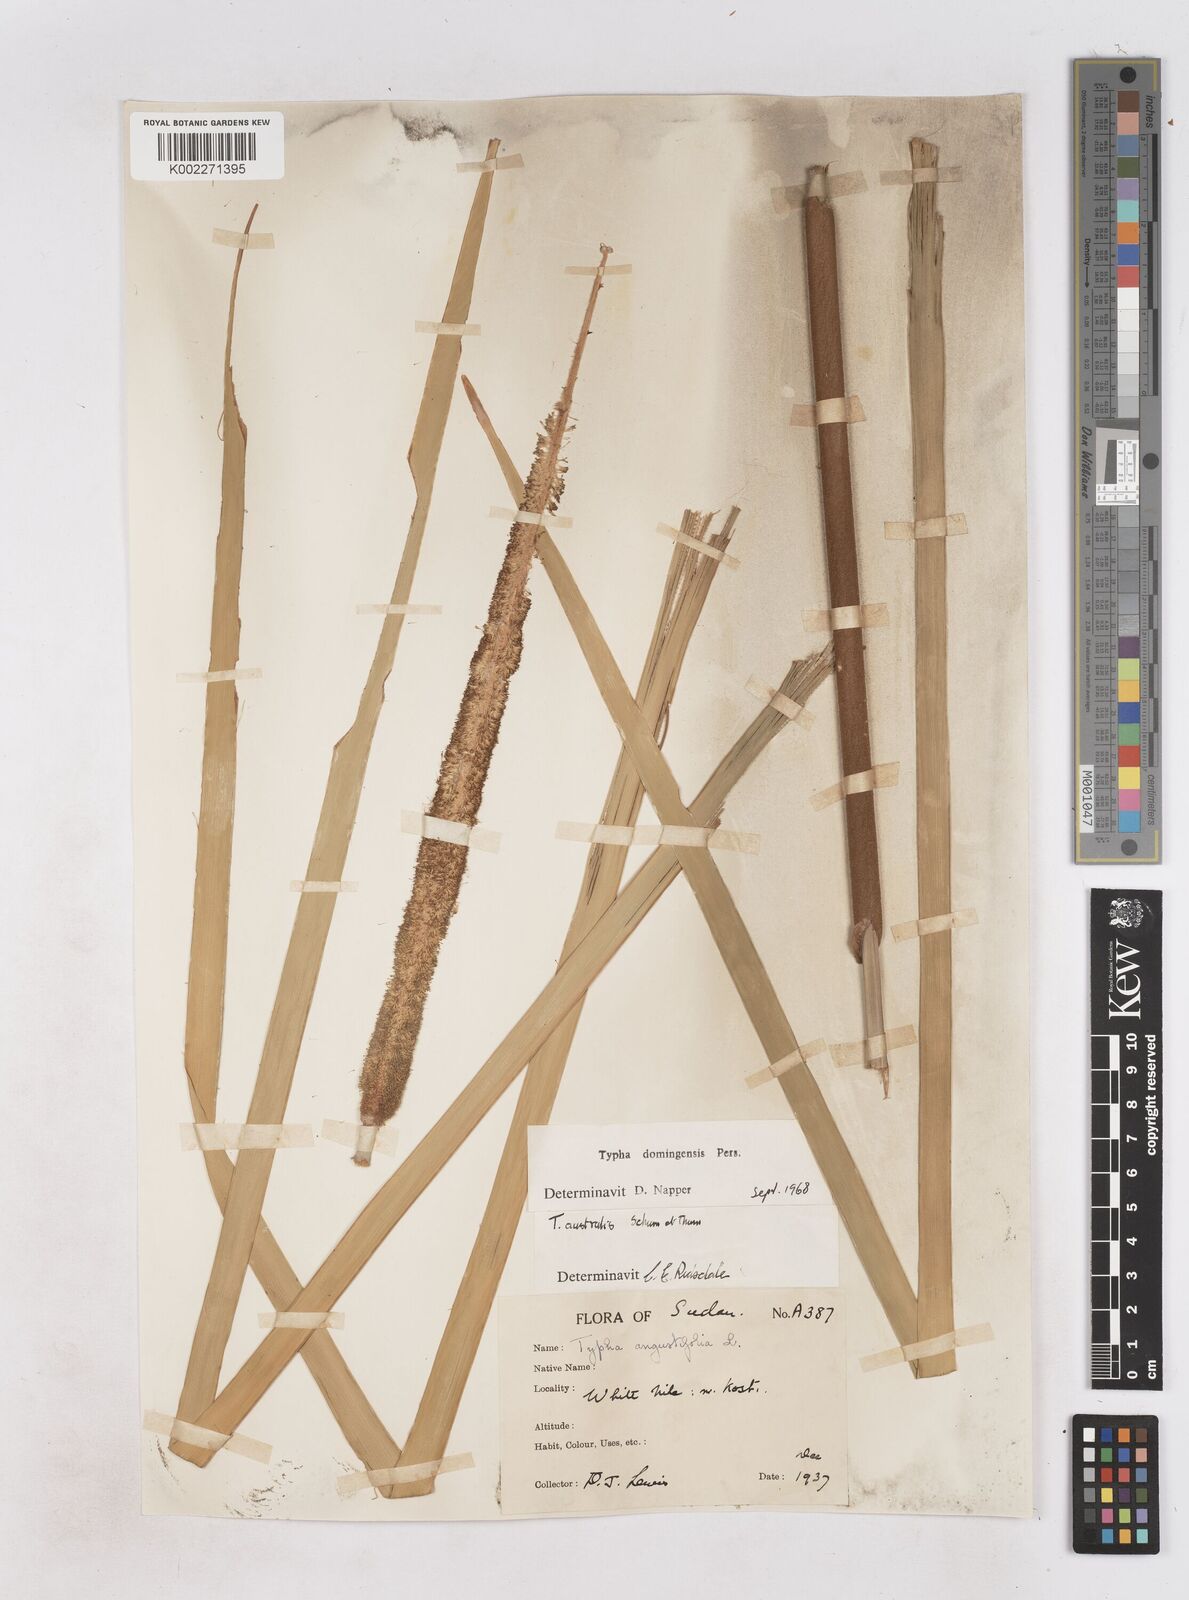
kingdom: Plantae
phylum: Tracheophyta
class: Liliopsida
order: Poales
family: Typhaceae
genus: Typha
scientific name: Typha domingensis
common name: Southern cattail
